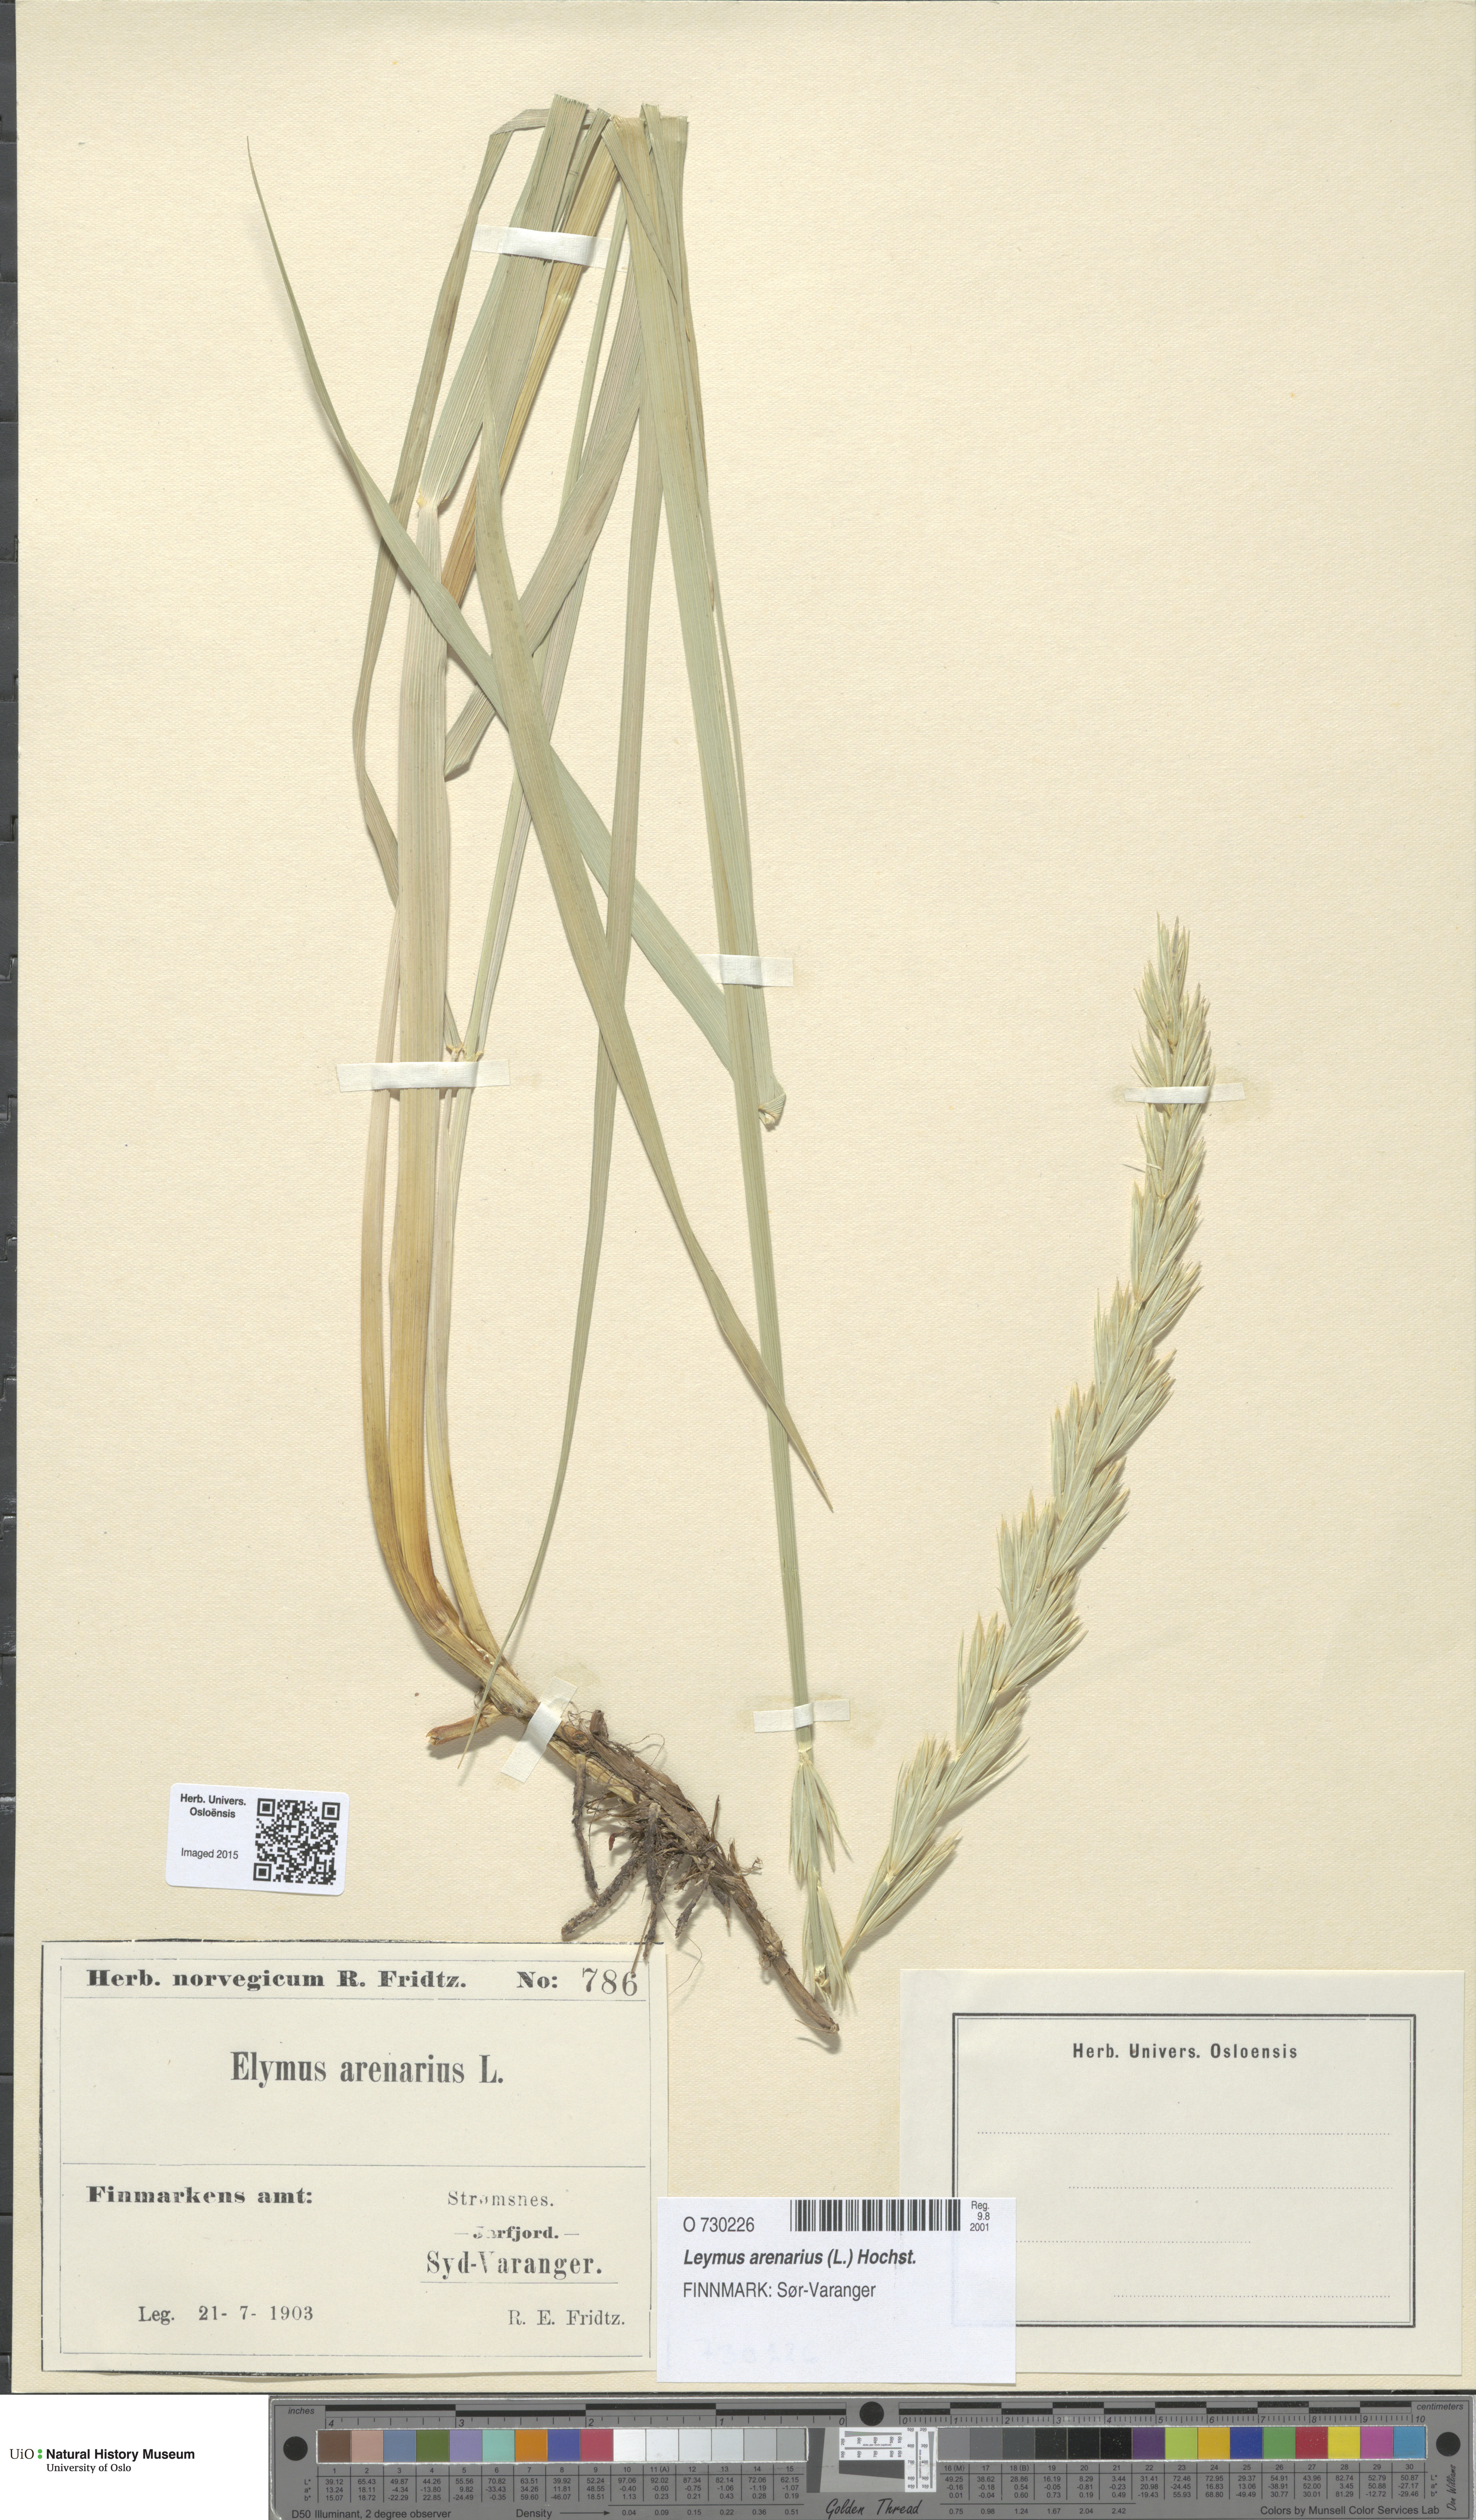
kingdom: Plantae
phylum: Tracheophyta
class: Liliopsida
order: Poales
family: Poaceae
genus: Leymus
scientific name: Leymus arenarius
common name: Lyme-grass
